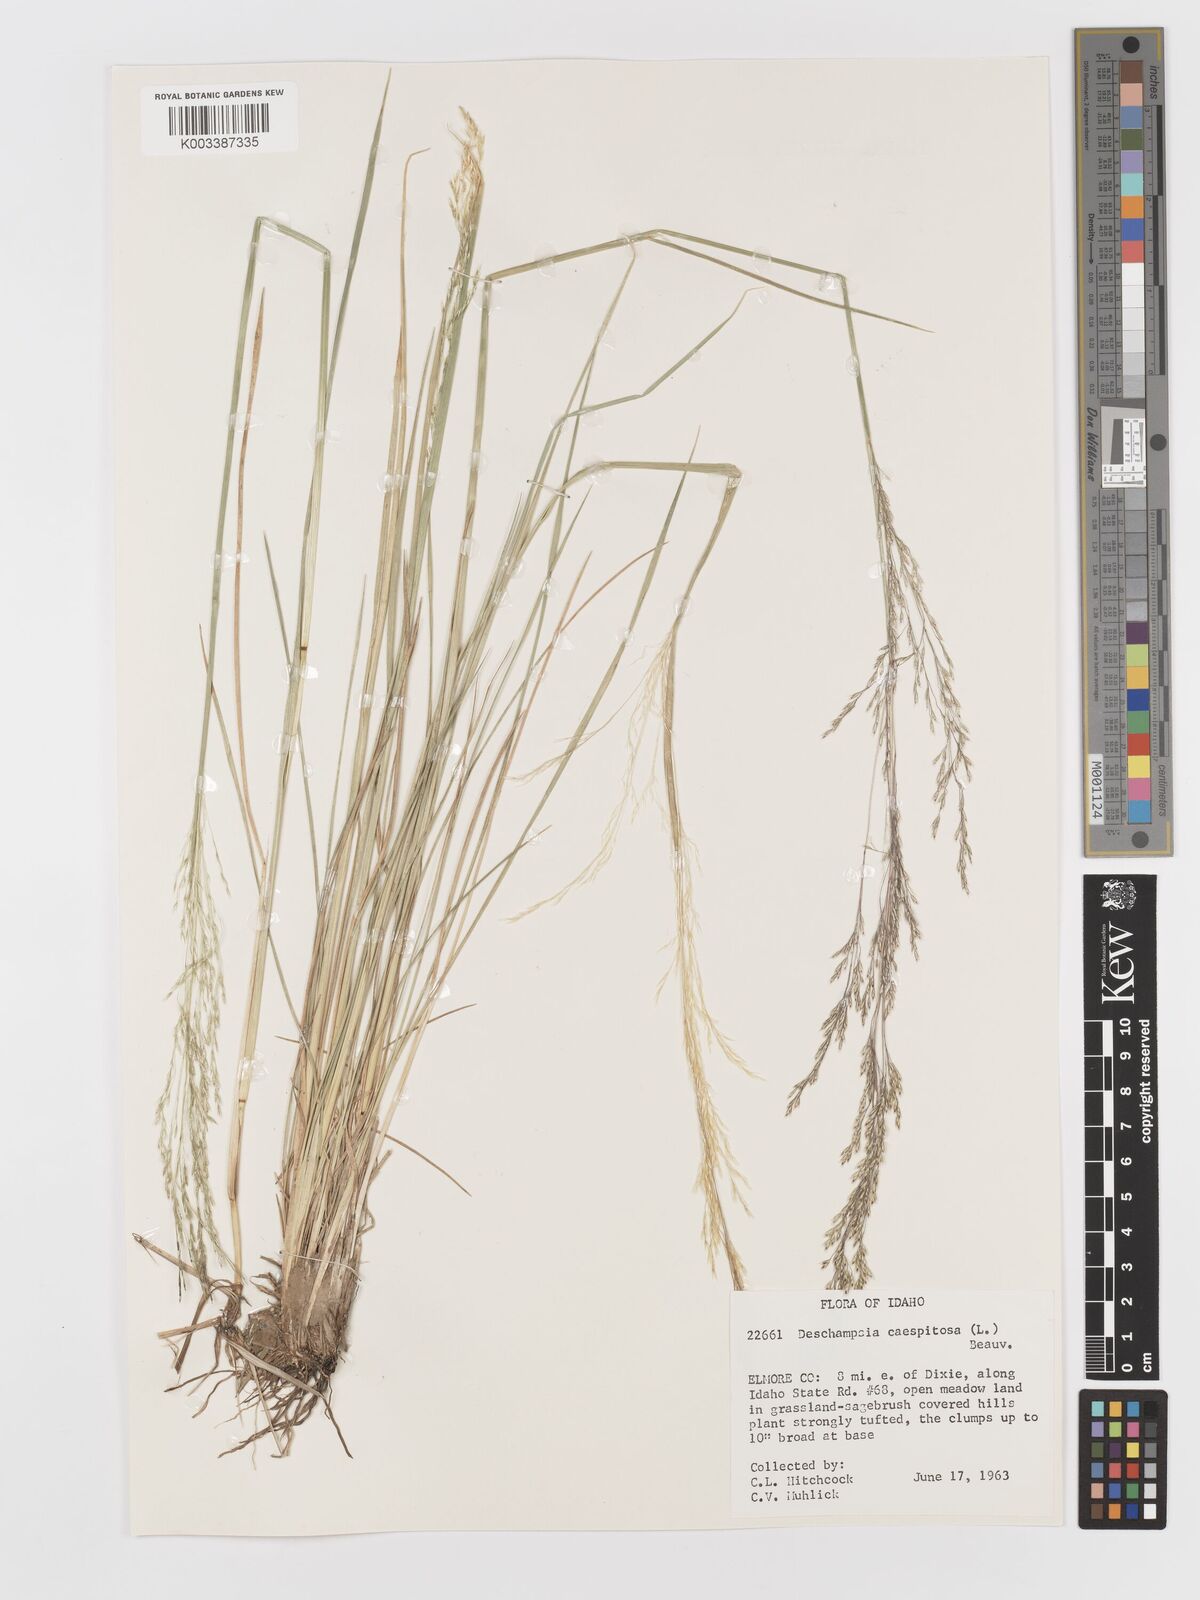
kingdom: Plantae
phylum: Tracheophyta
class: Liliopsida
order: Poales
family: Poaceae
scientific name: Poaceae
